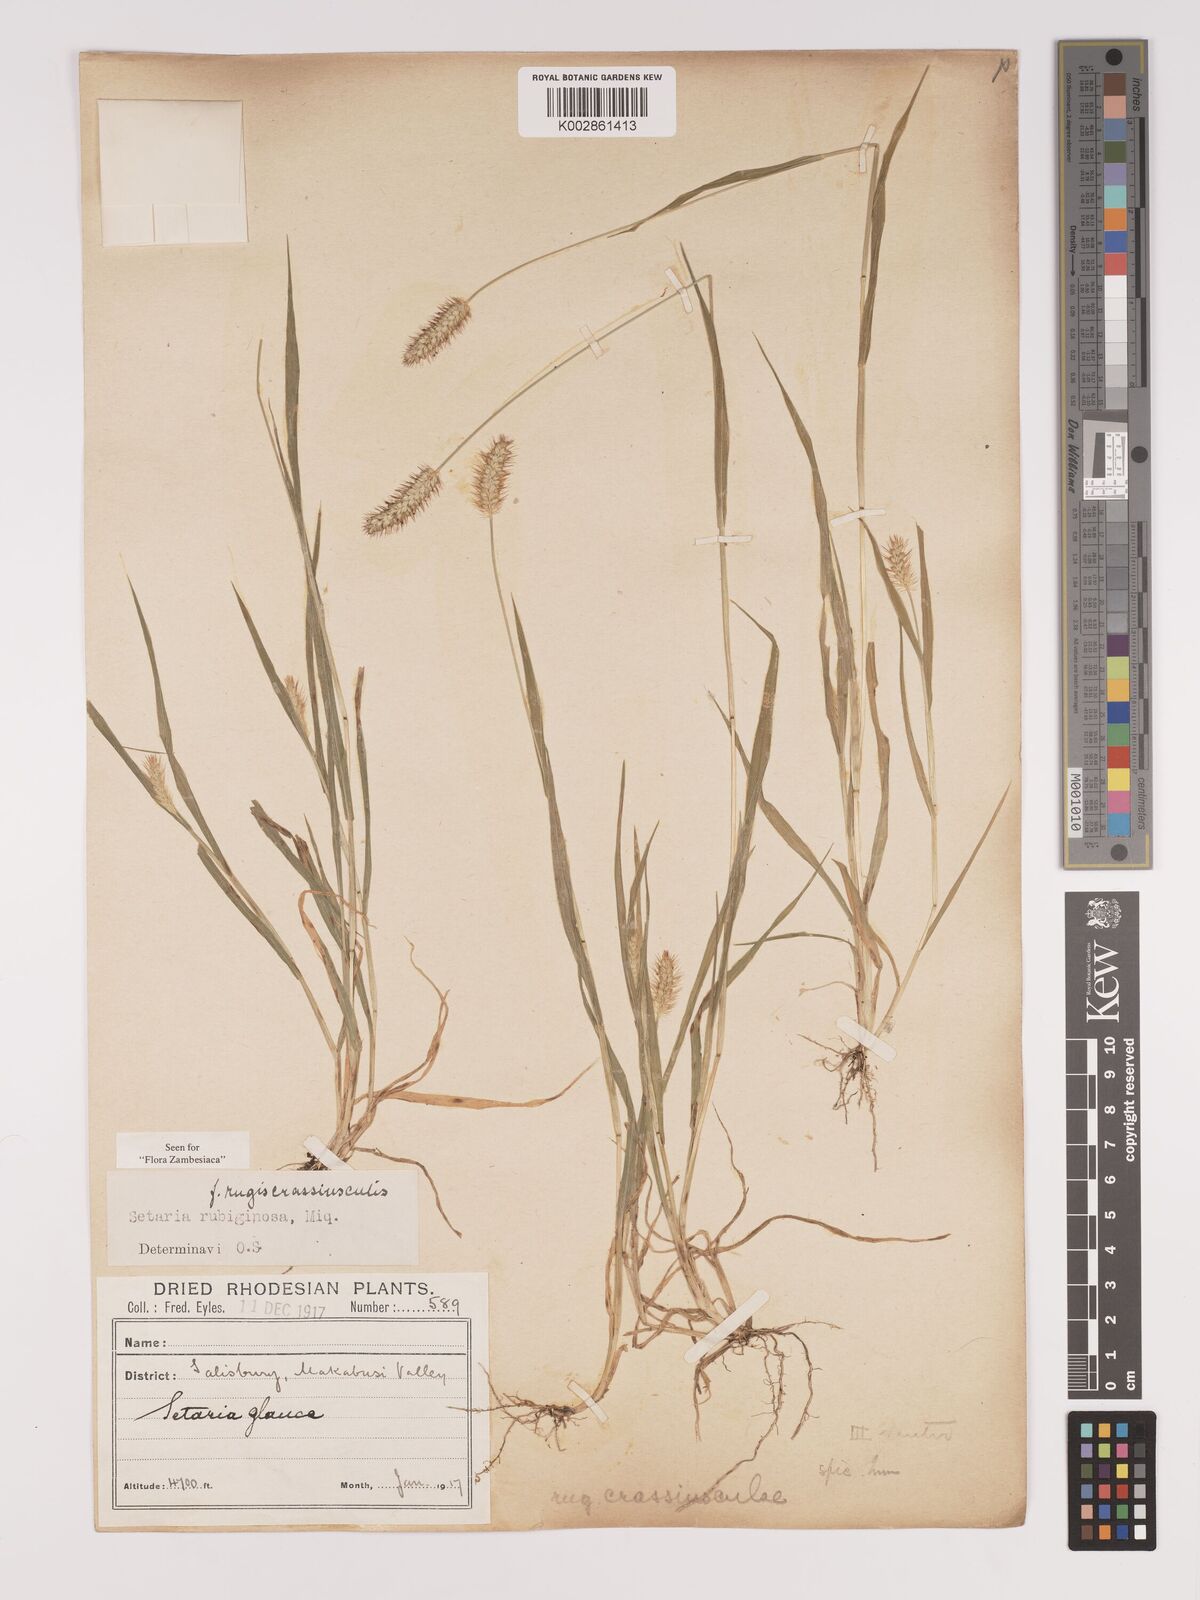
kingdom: Plantae
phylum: Tracheophyta
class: Liliopsida
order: Poales
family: Poaceae
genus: Setaria
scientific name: Setaria pumila
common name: Yellow bristle-grass
